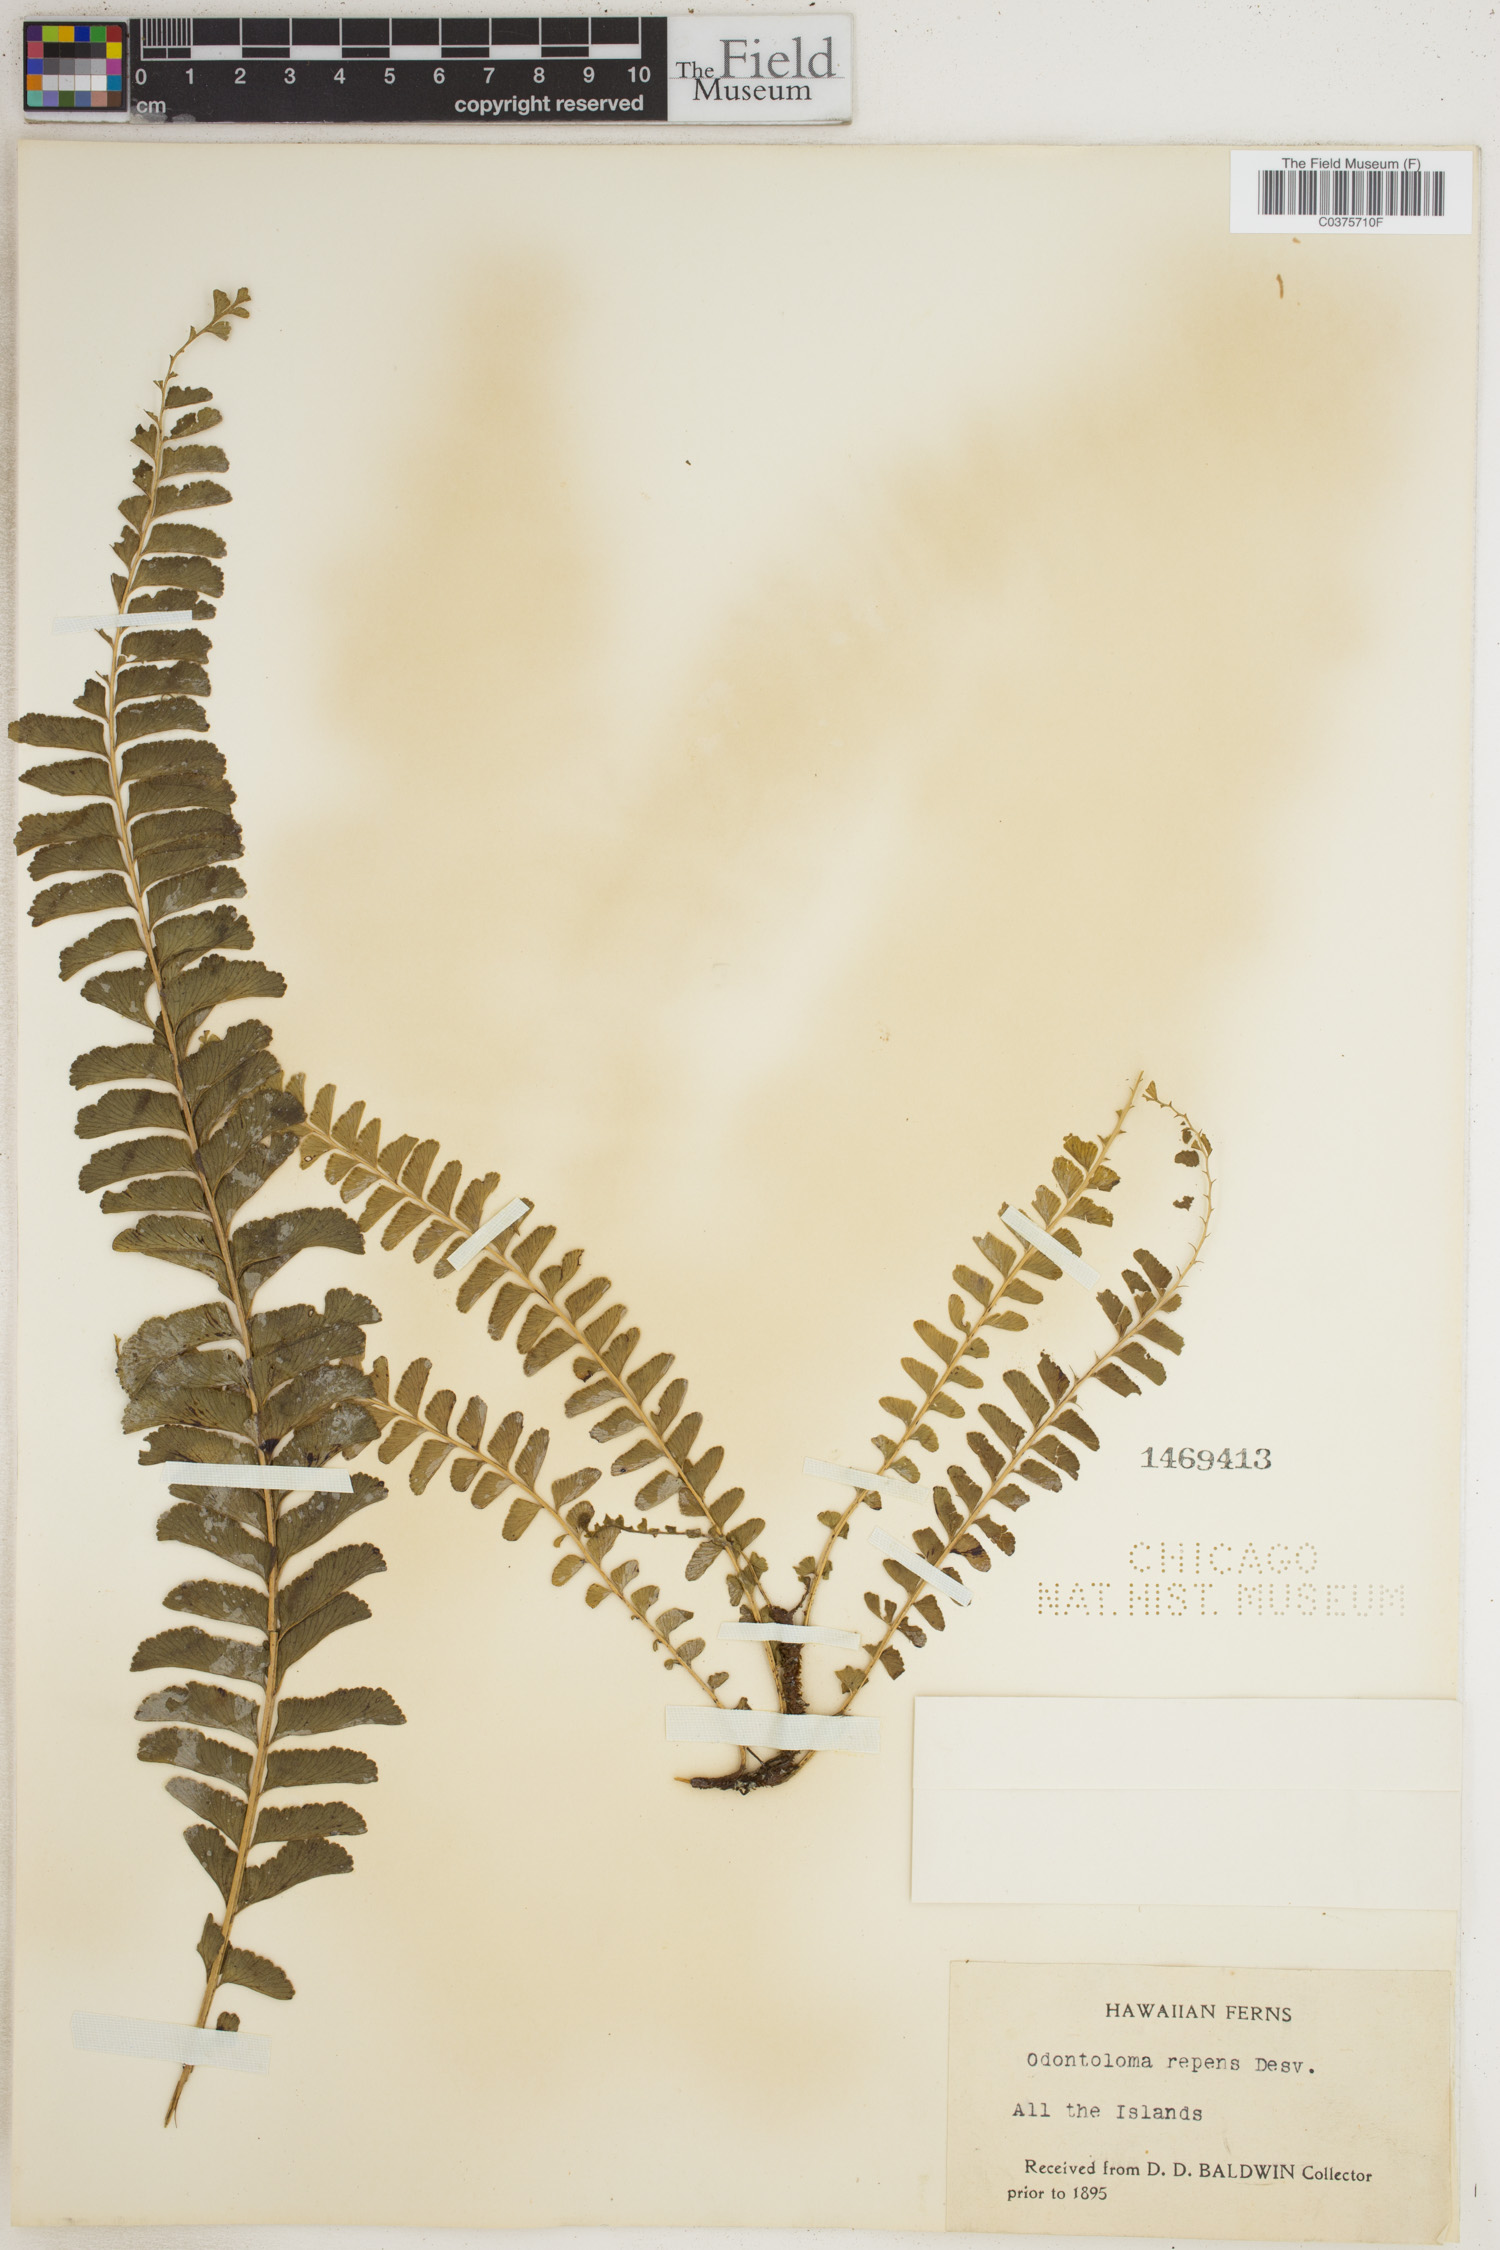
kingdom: Plantae
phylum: Tracheophyta
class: Polypodiopsida
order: Polypodiales
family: Lindsaeaceae
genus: Lindsaea
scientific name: Lindsaea repens
